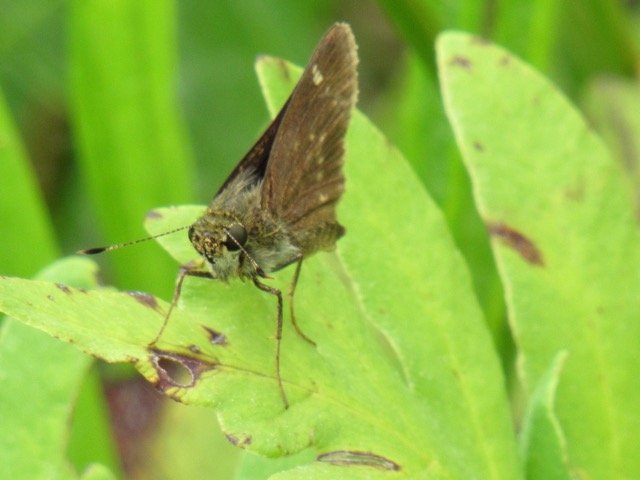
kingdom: Animalia
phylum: Arthropoda
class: Insecta
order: Lepidoptera
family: Hesperiidae
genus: Vernia
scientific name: Vernia verna
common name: Little Glassywing
